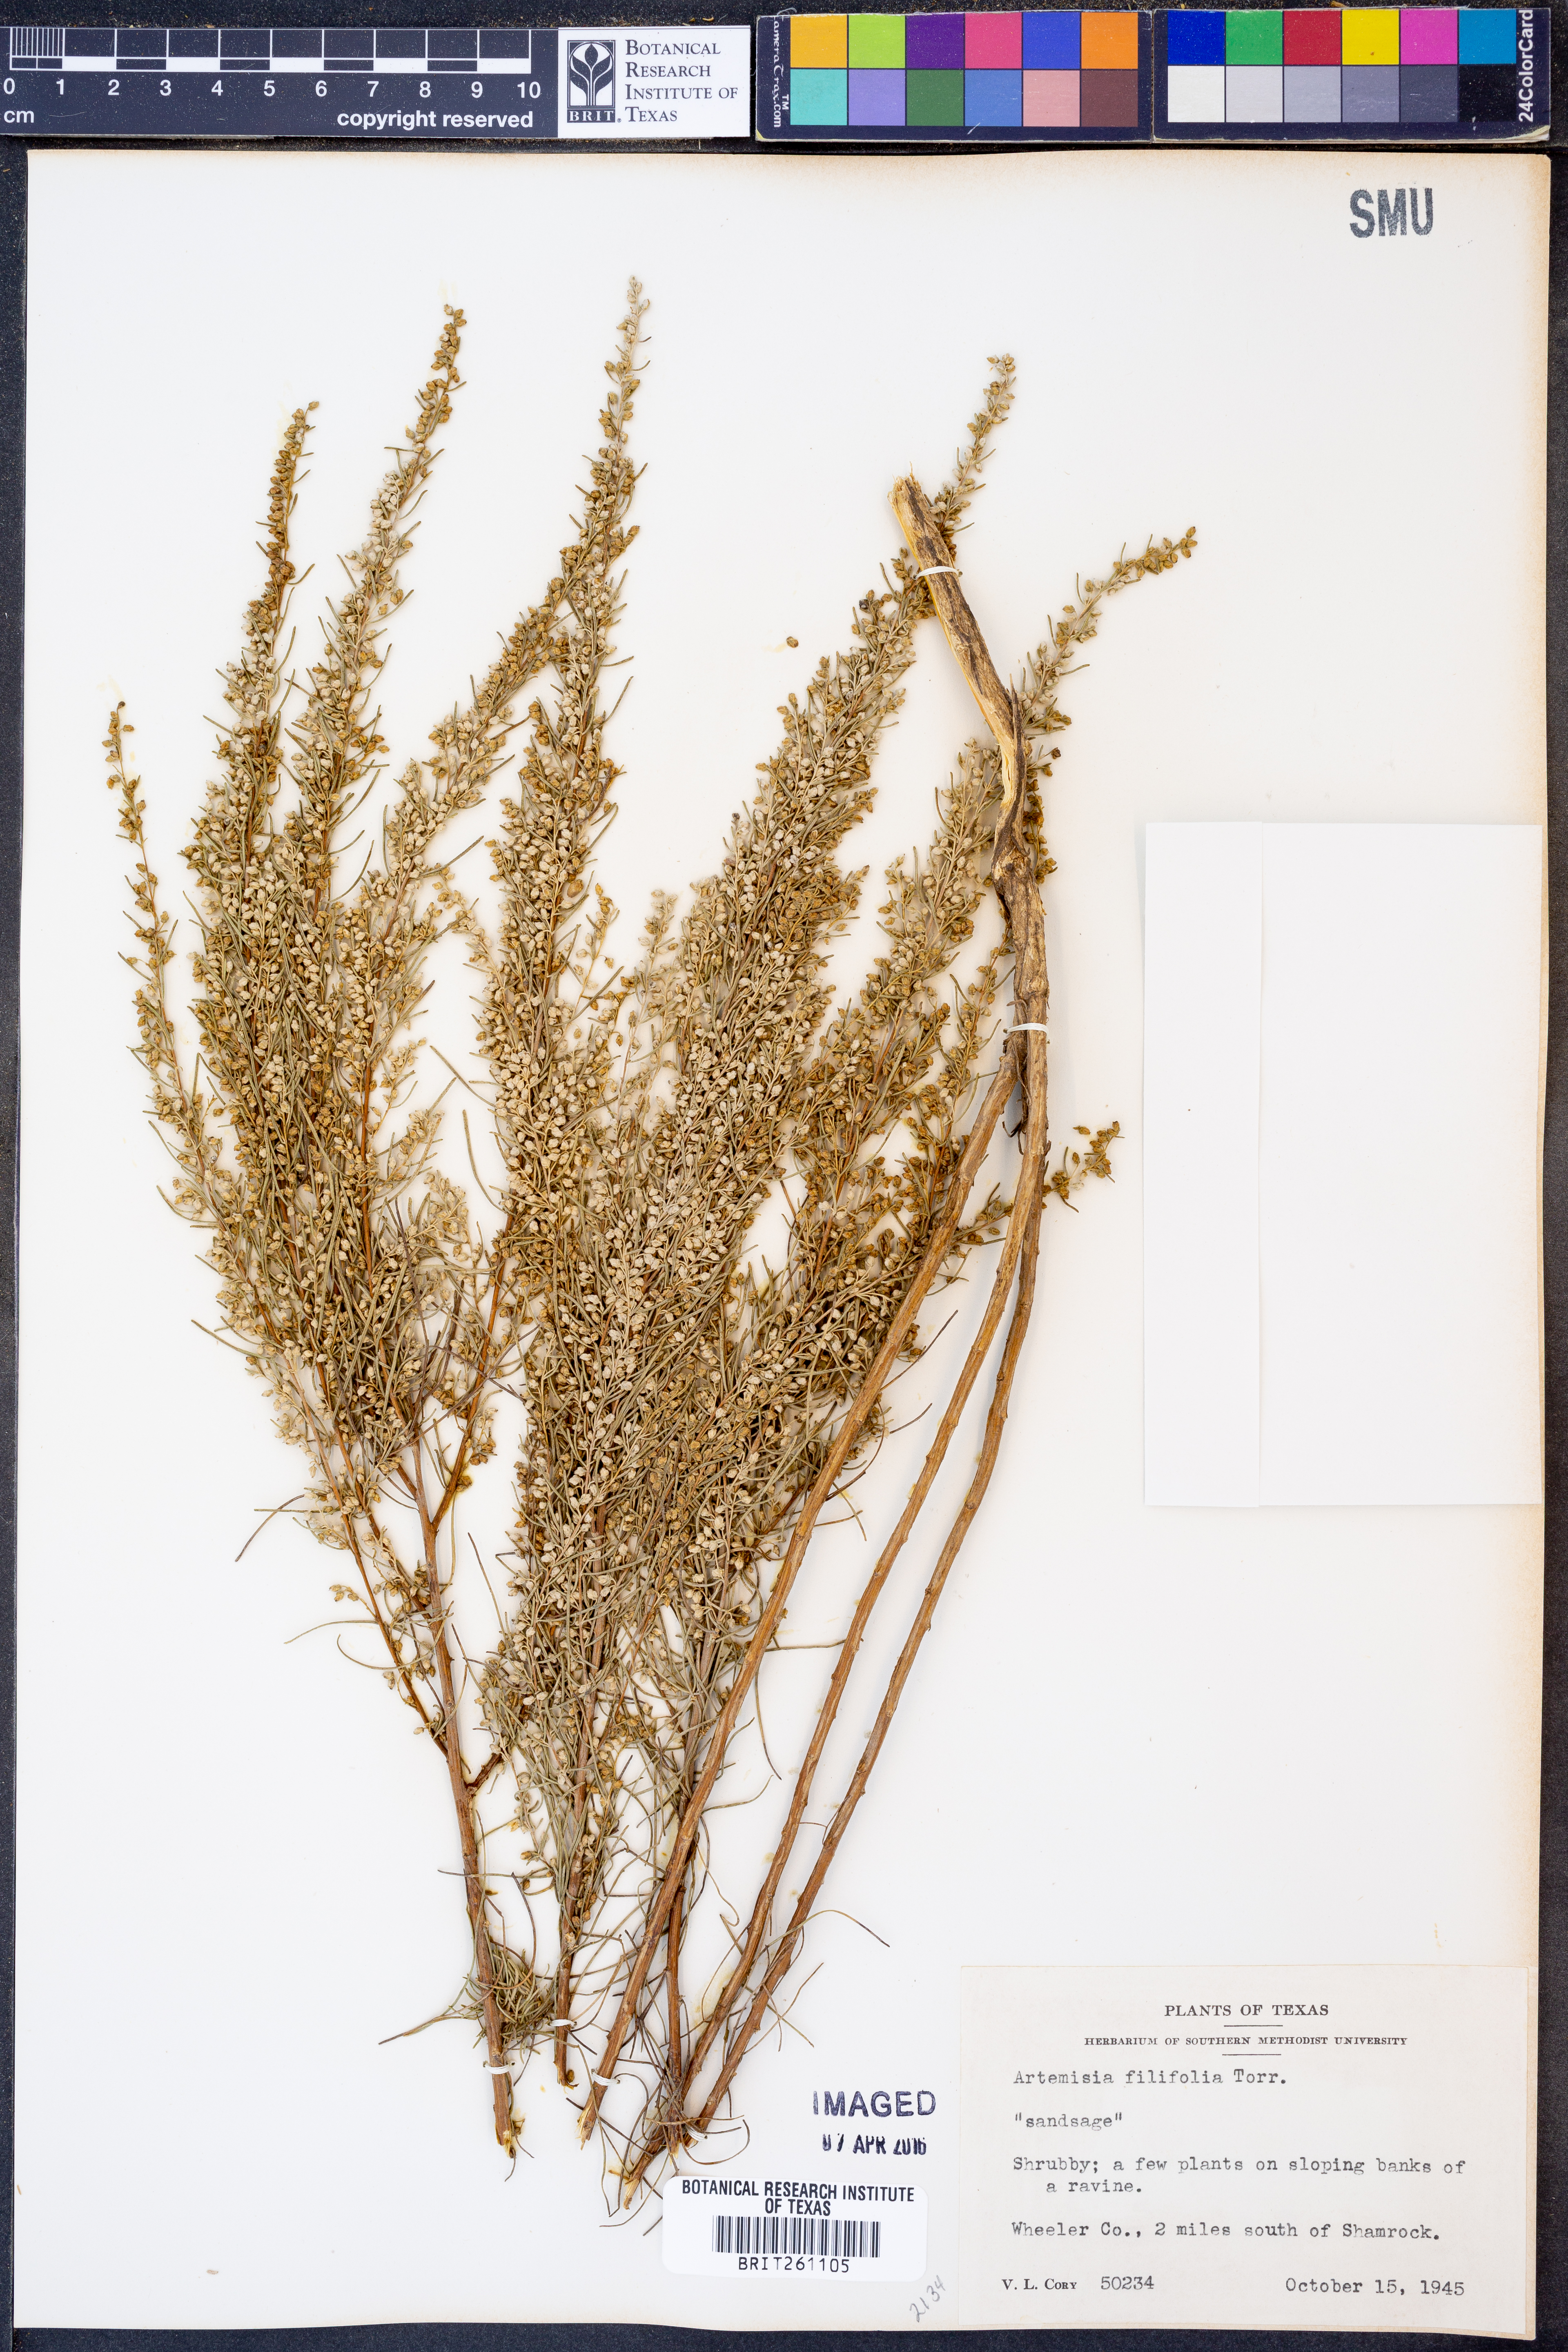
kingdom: Plantae
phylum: Tracheophyta
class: Magnoliopsida
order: Asterales
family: Asteraceae
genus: Artemisia
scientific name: Artemisia filifolia
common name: Sand-sage
